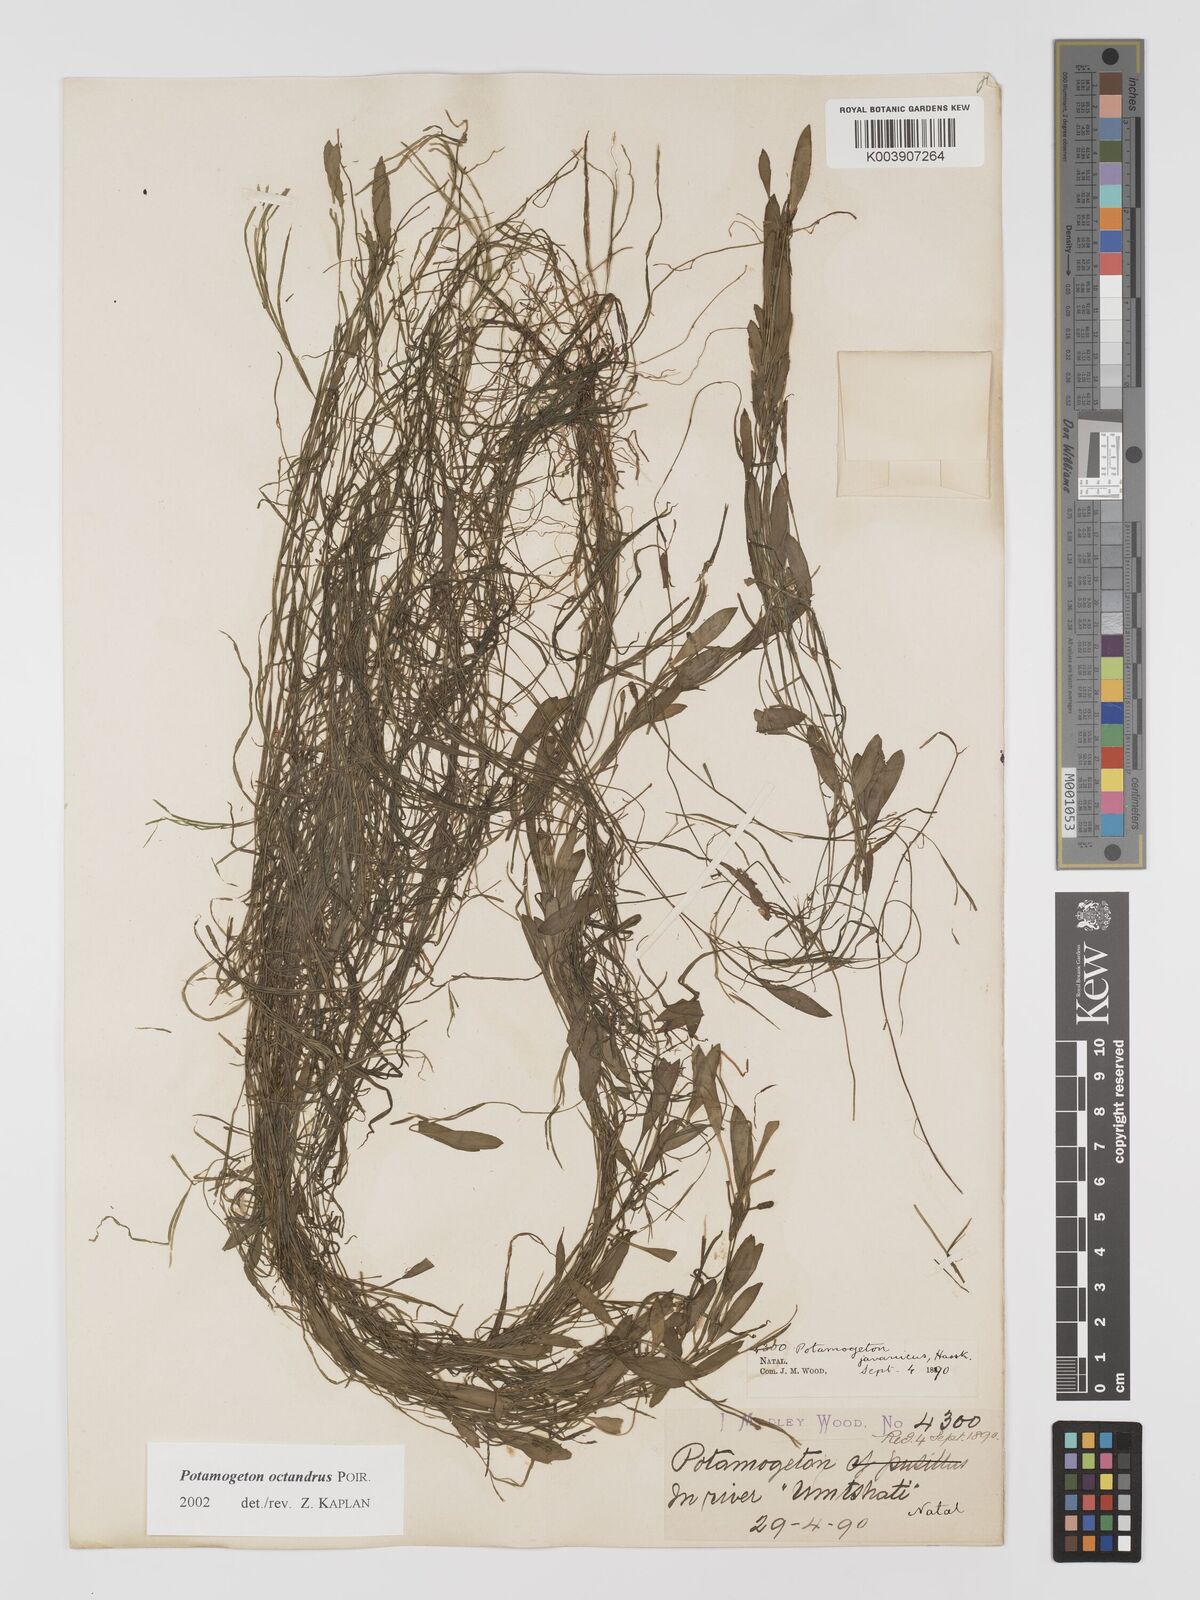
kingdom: Plantae
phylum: Tracheophyta
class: Liliopsida
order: Alismatales
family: Potamogetonaceae
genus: Potamogeton
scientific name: Potamogeton tenuicaulis
